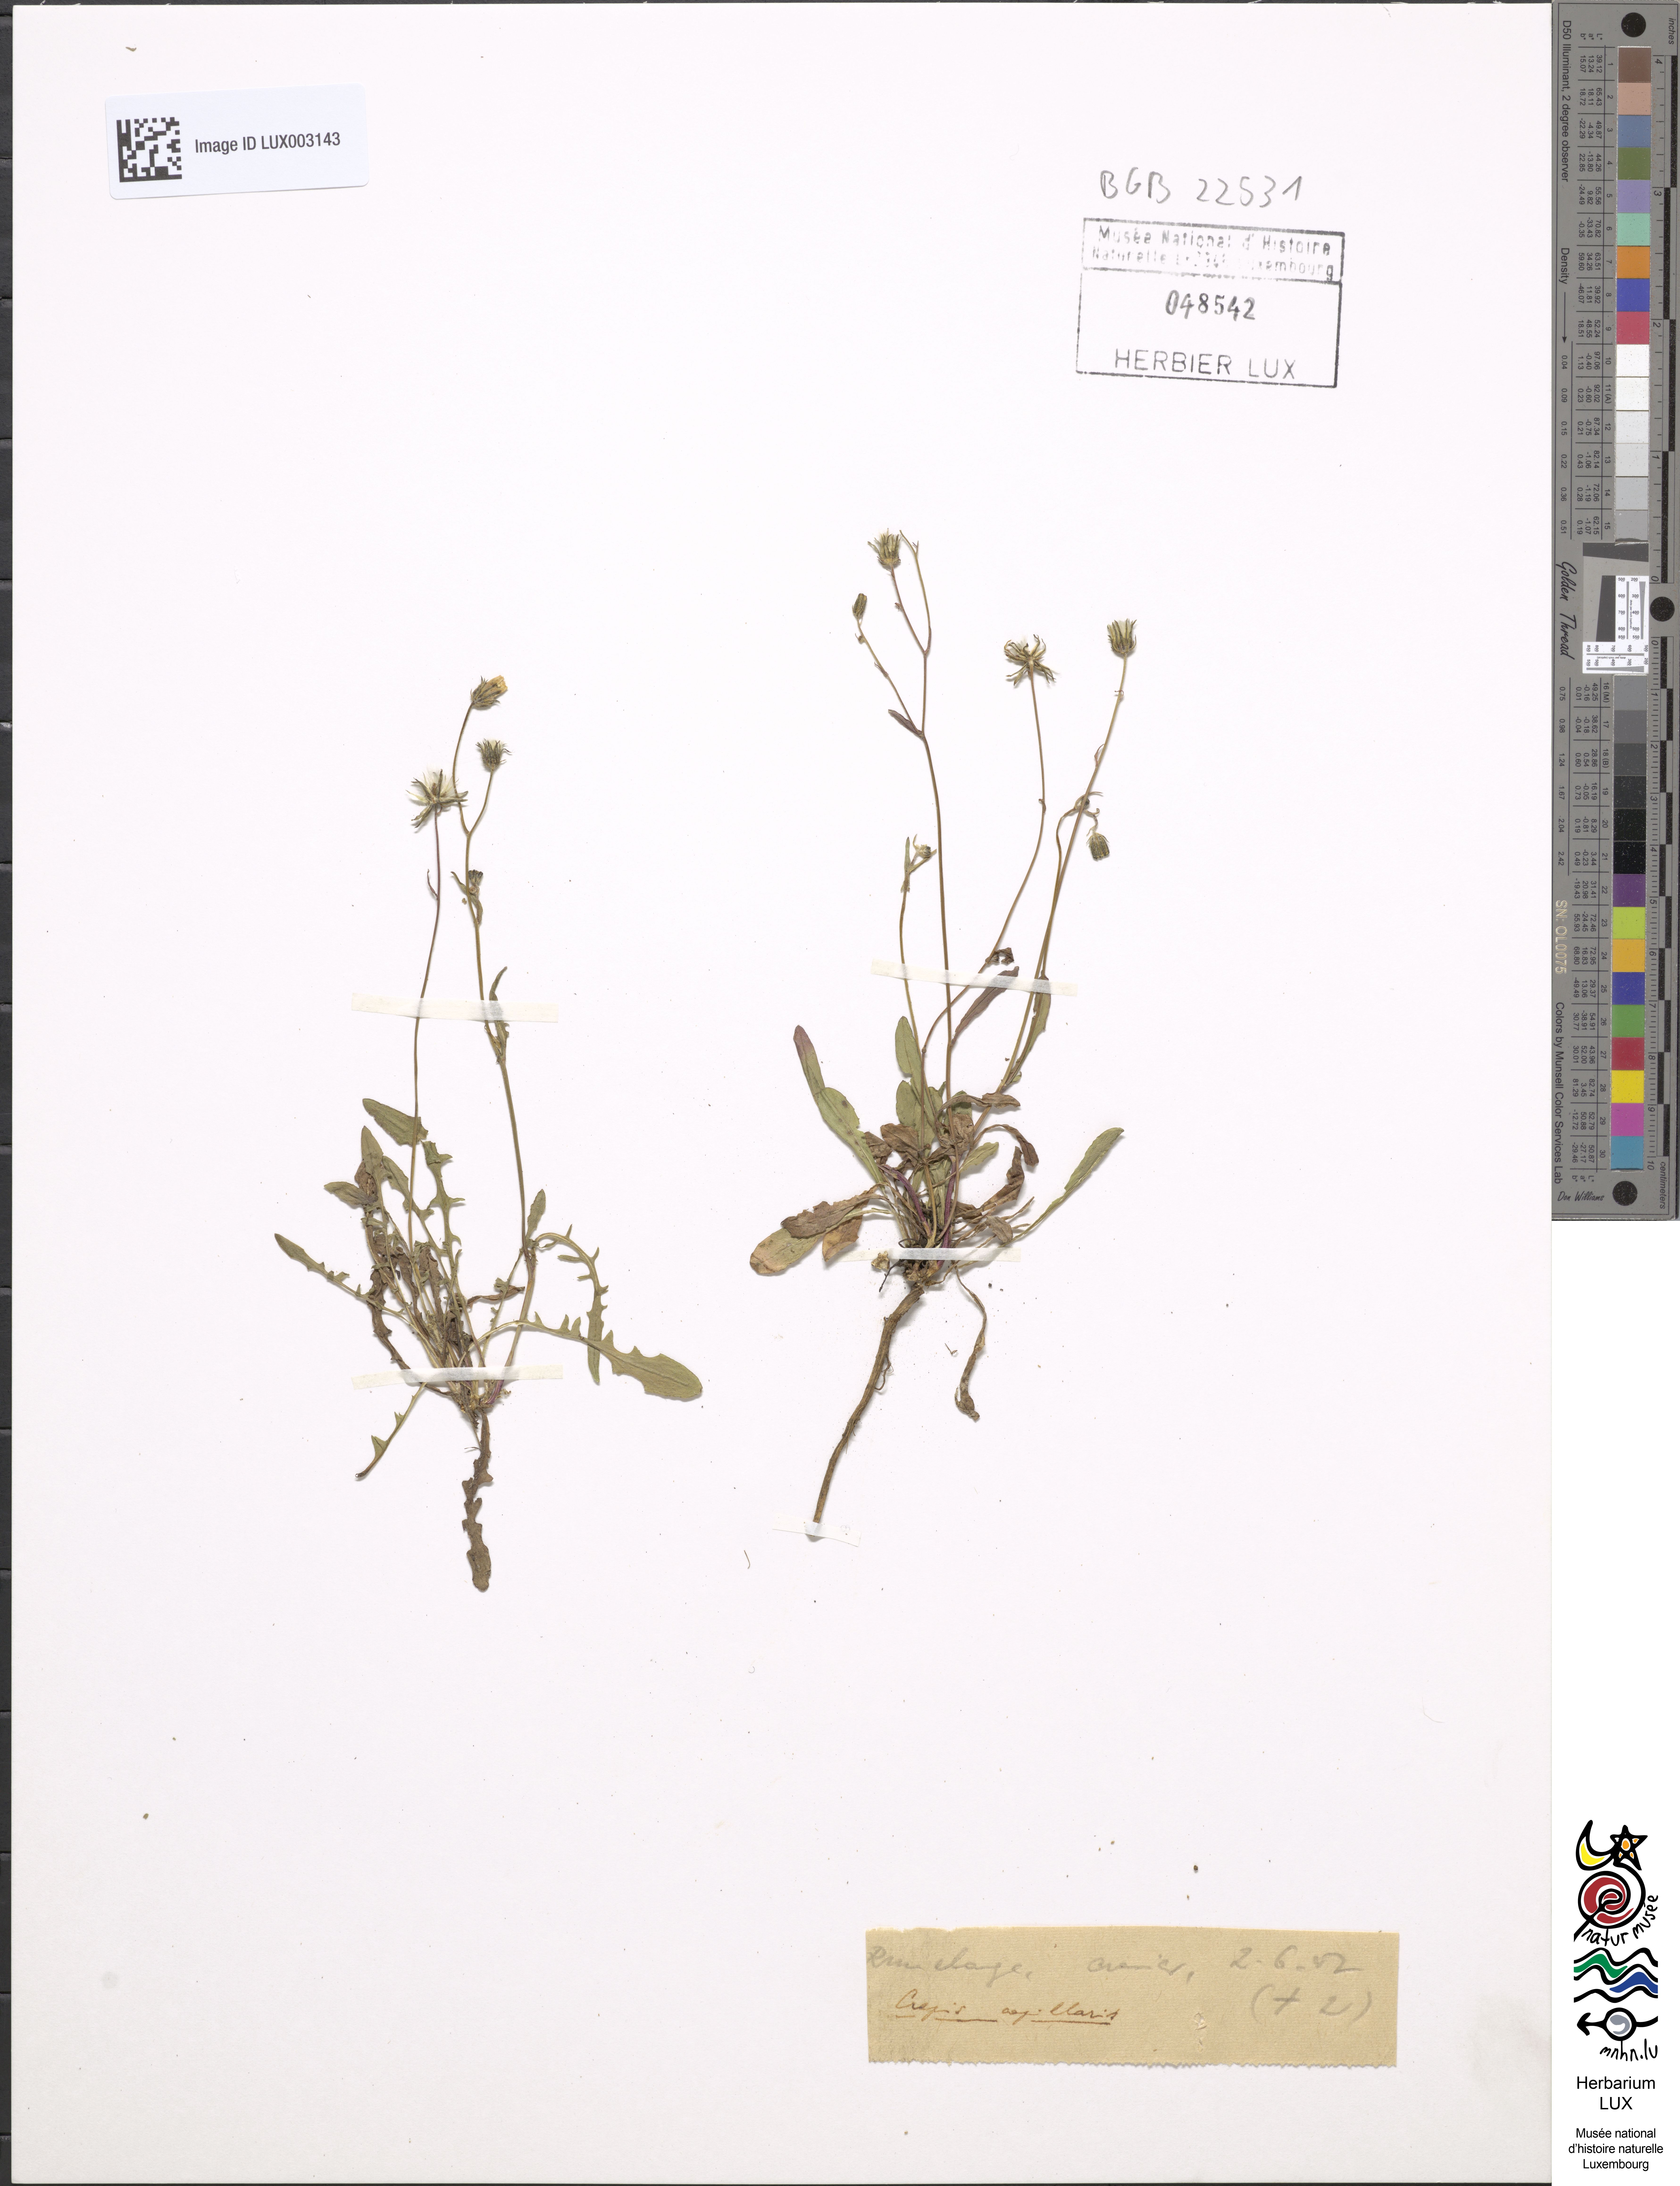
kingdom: Plantae
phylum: Tracheophyta
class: Magnoliopsida
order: Asterales
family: Asteraceae
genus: Crepis
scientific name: Crepis capillaris
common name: Smooth hawksbeard
